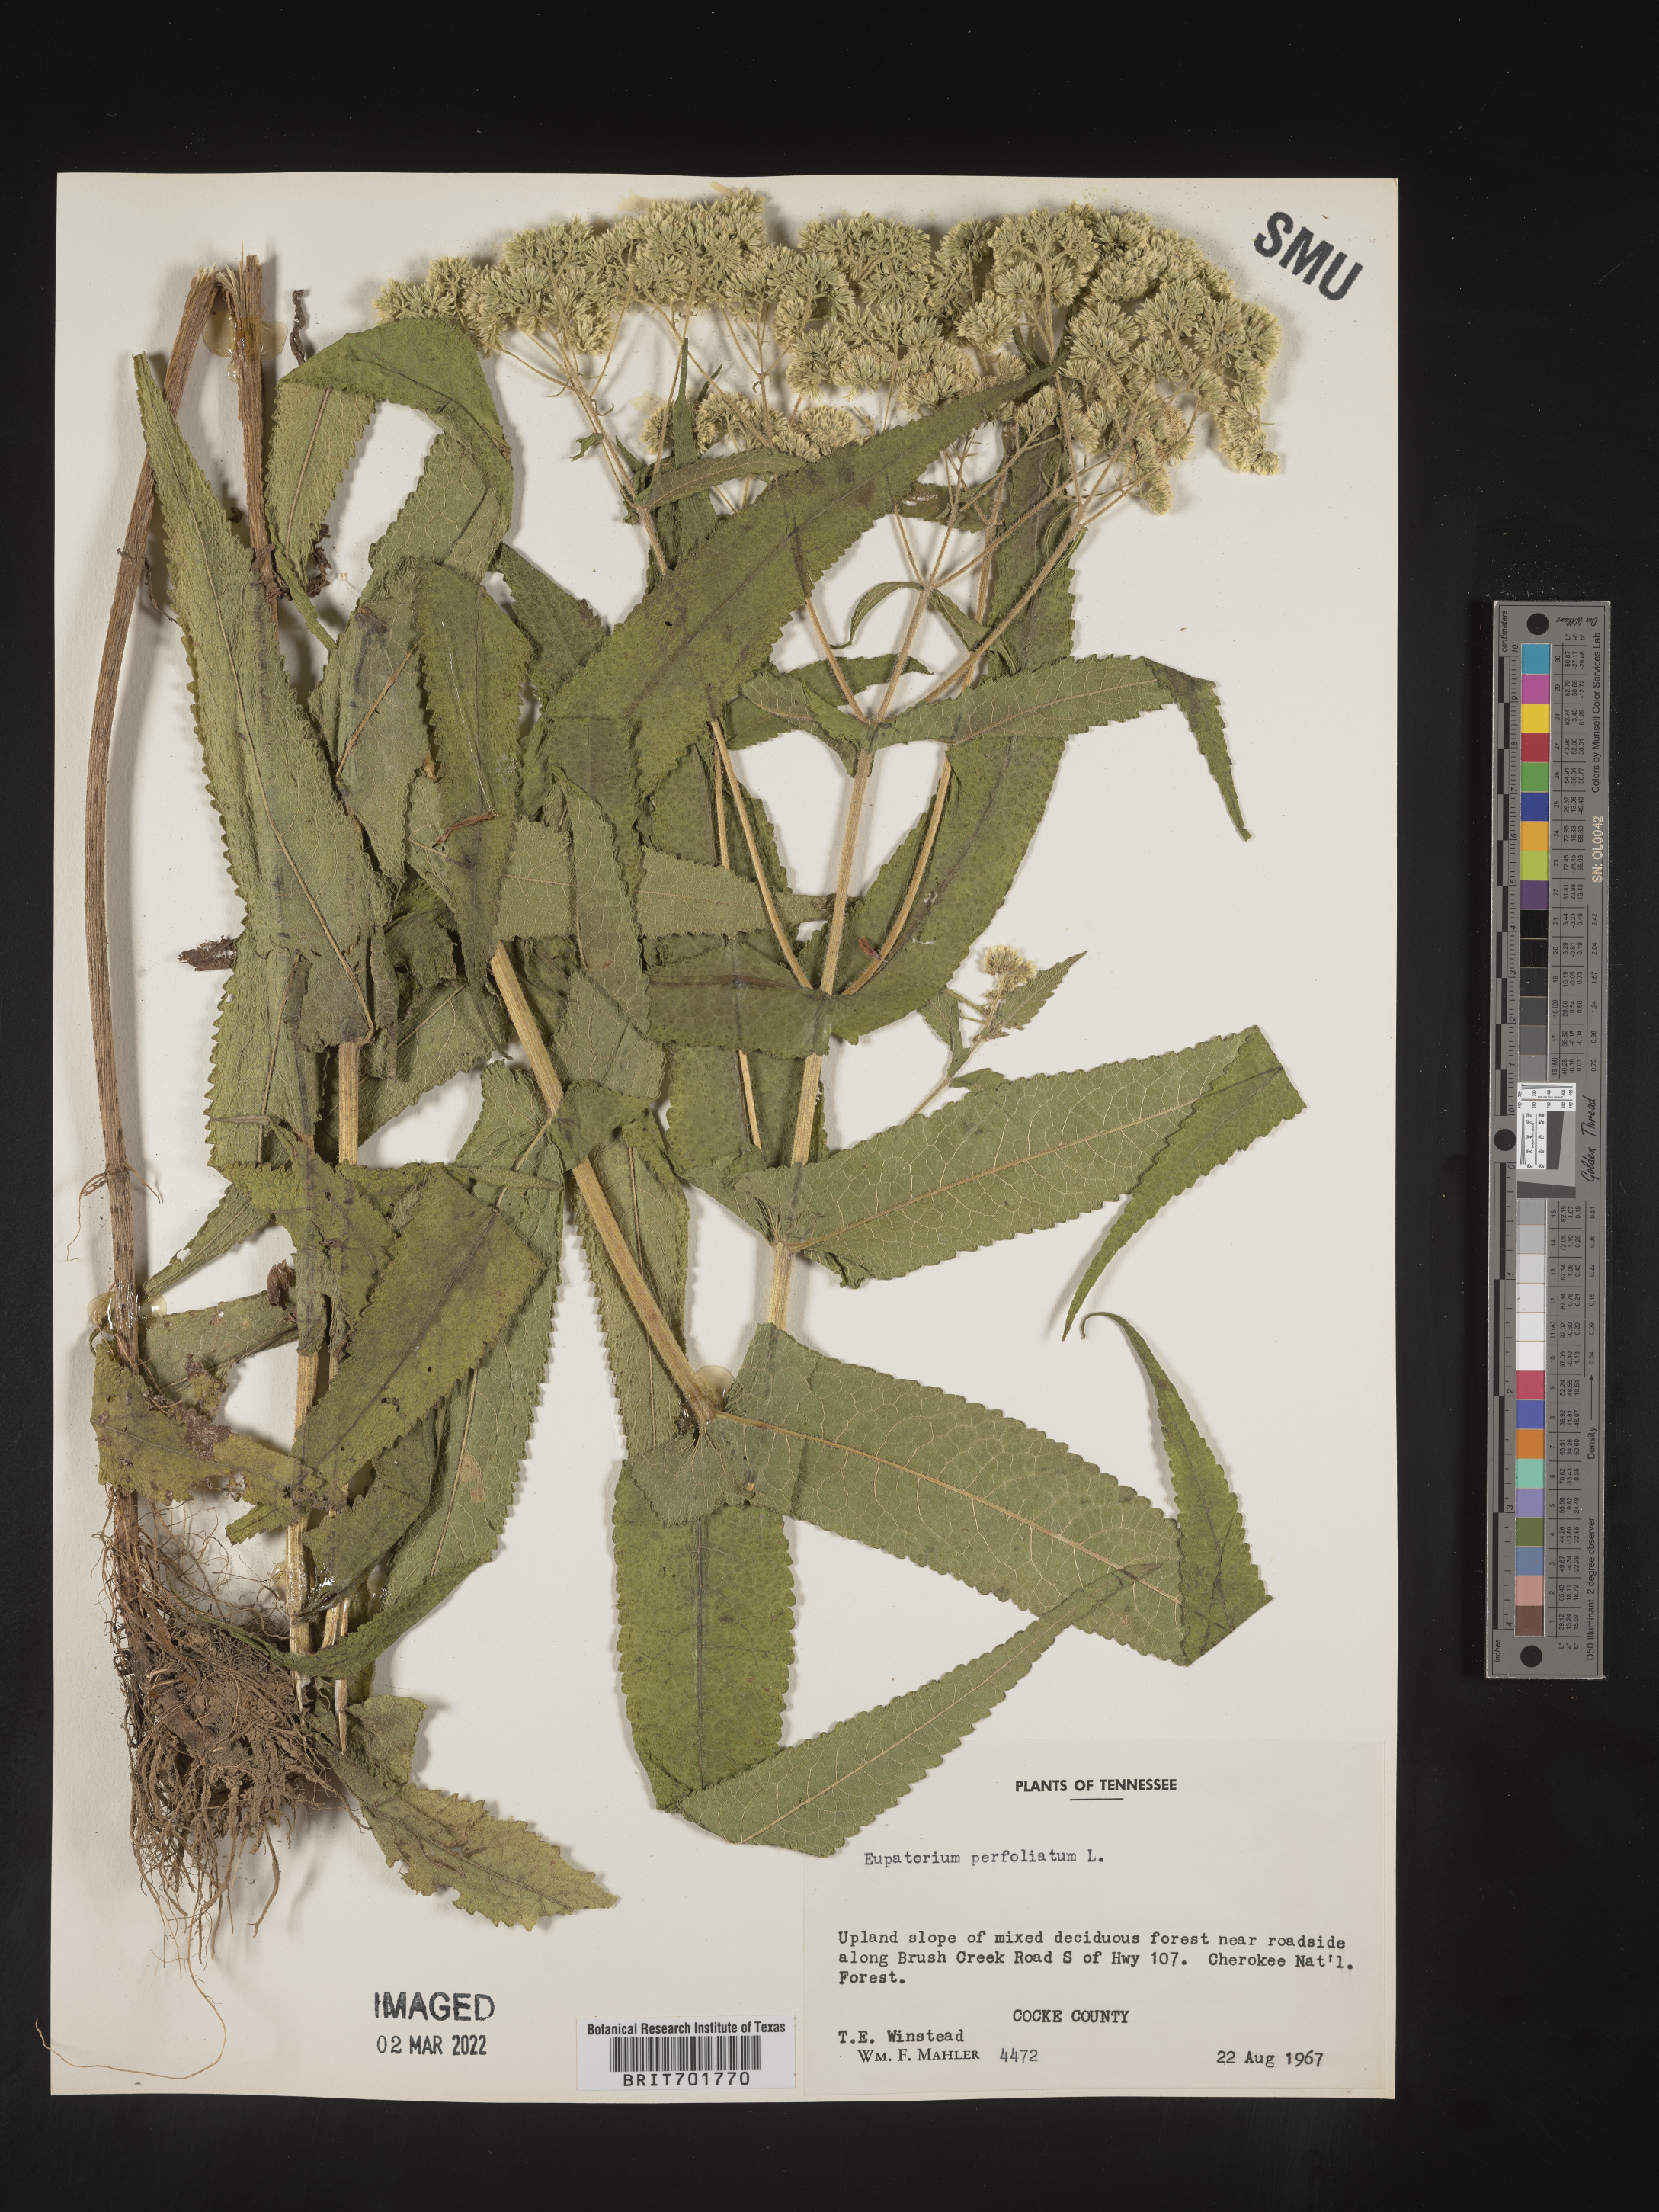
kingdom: Plantae
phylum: Tracheophyta
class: Magnoliopsida
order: Asterales
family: Asteraceae
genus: Eupatorium
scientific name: Eupatorium perfoliatum
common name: Boneset
